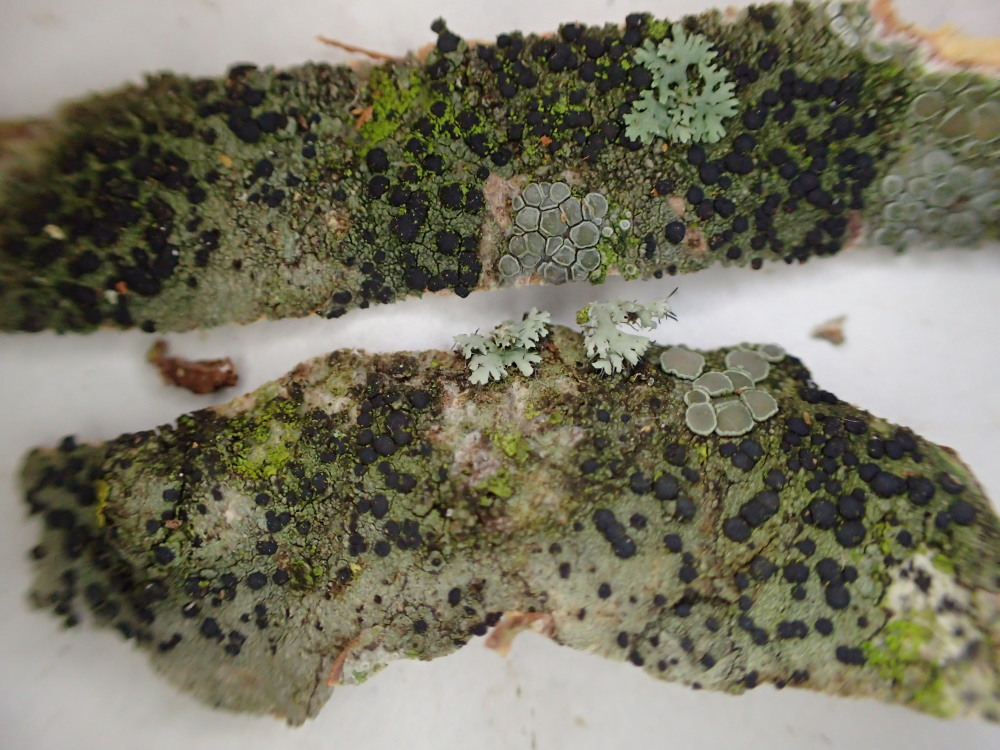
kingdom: Fungi
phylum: Ascomycota
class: Lecanoromycetes
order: Lecanorales
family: Lecanoraceae
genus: Lecidella
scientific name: Lecidella euphorea
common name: vortet skivelav
